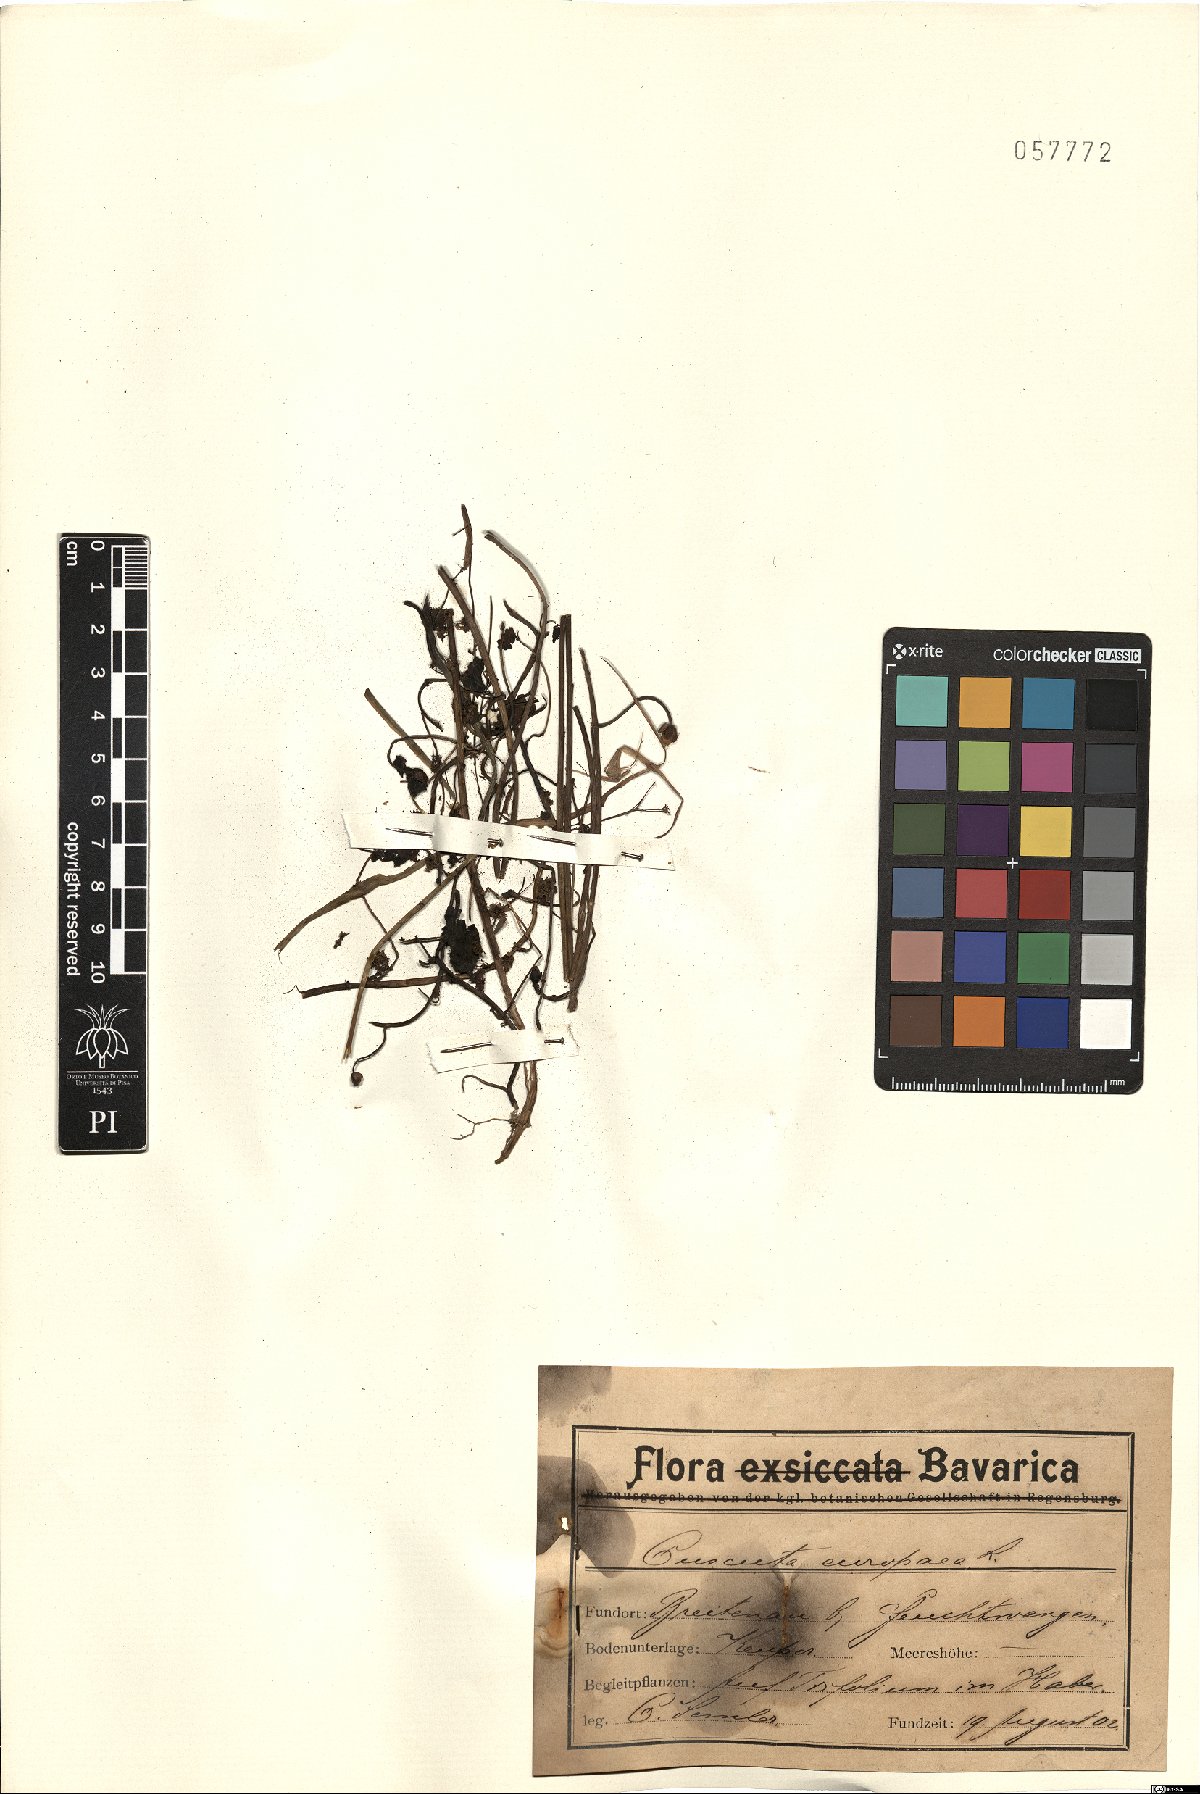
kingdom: Plantae
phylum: Tracheophyta
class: Magnoliopsida
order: Solanales
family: Convolvulaceae
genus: Cuscuta
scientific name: Cuscuta europaea
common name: Greater dodder
